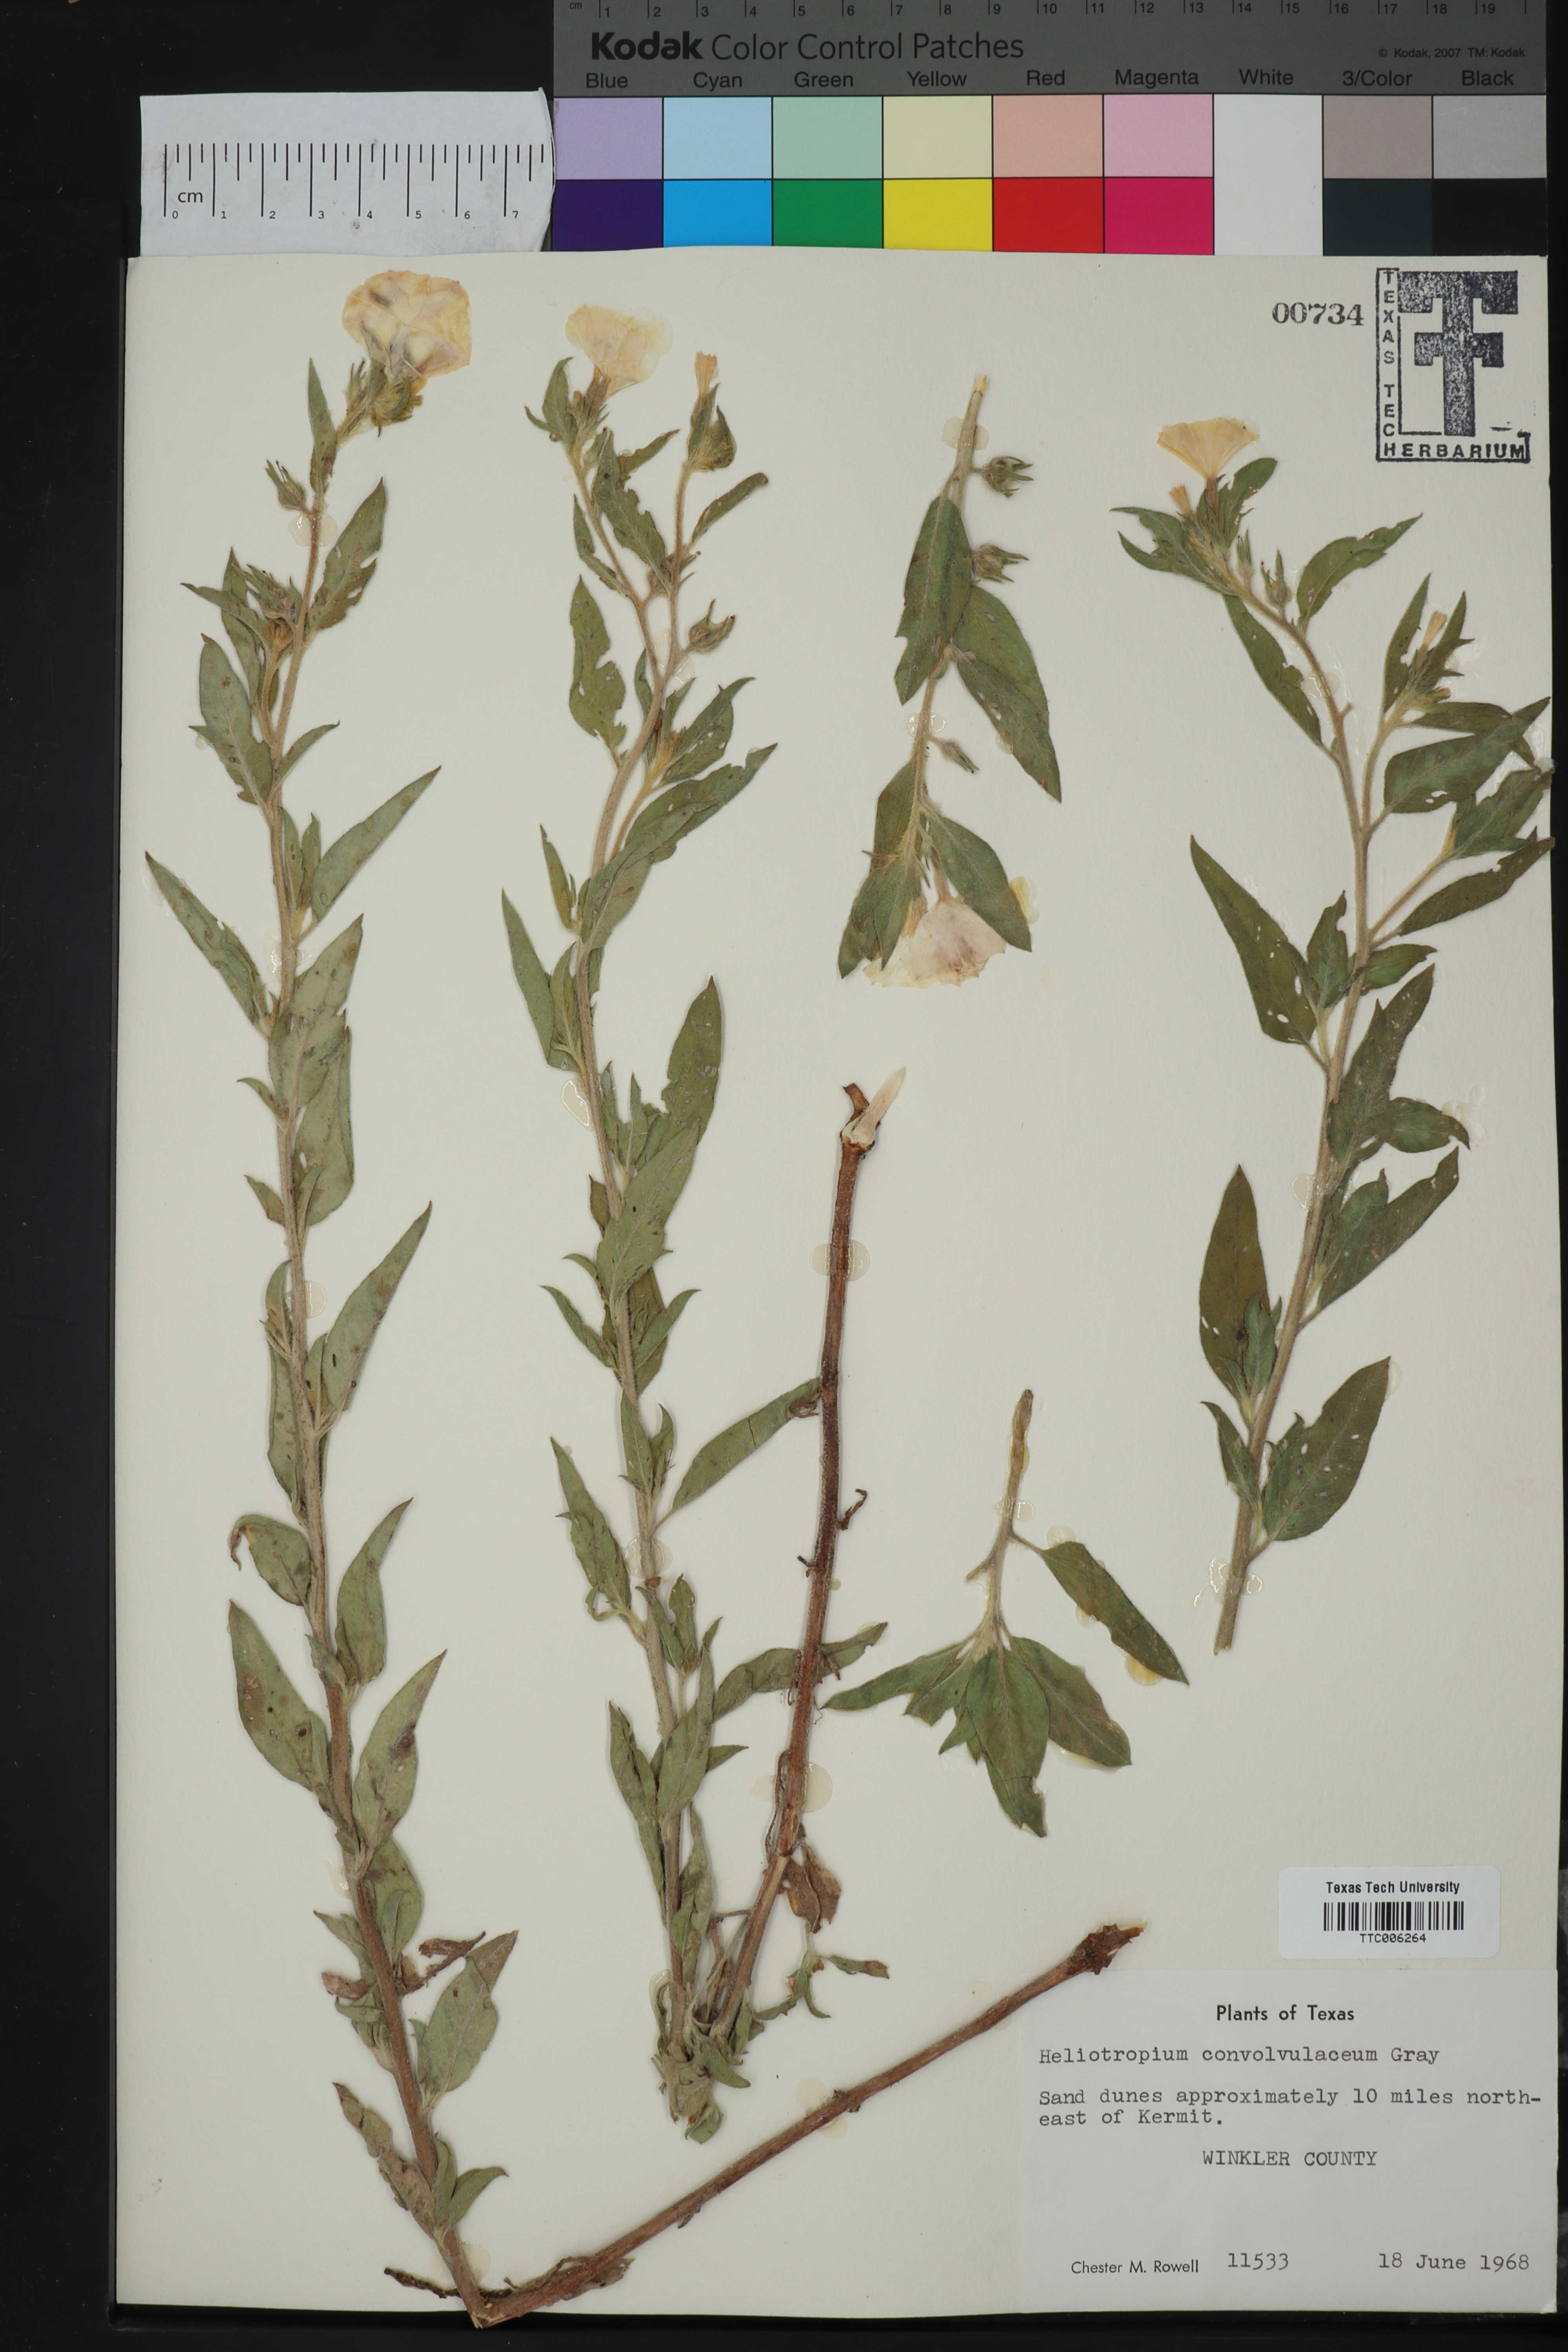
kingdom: Plantae
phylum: Tracheophyta
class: Magnoliopsida
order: Boraginales
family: Heliotropiaceae
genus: Euploca
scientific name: Euploca convolvulacea
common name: Bindweed heliotrope
